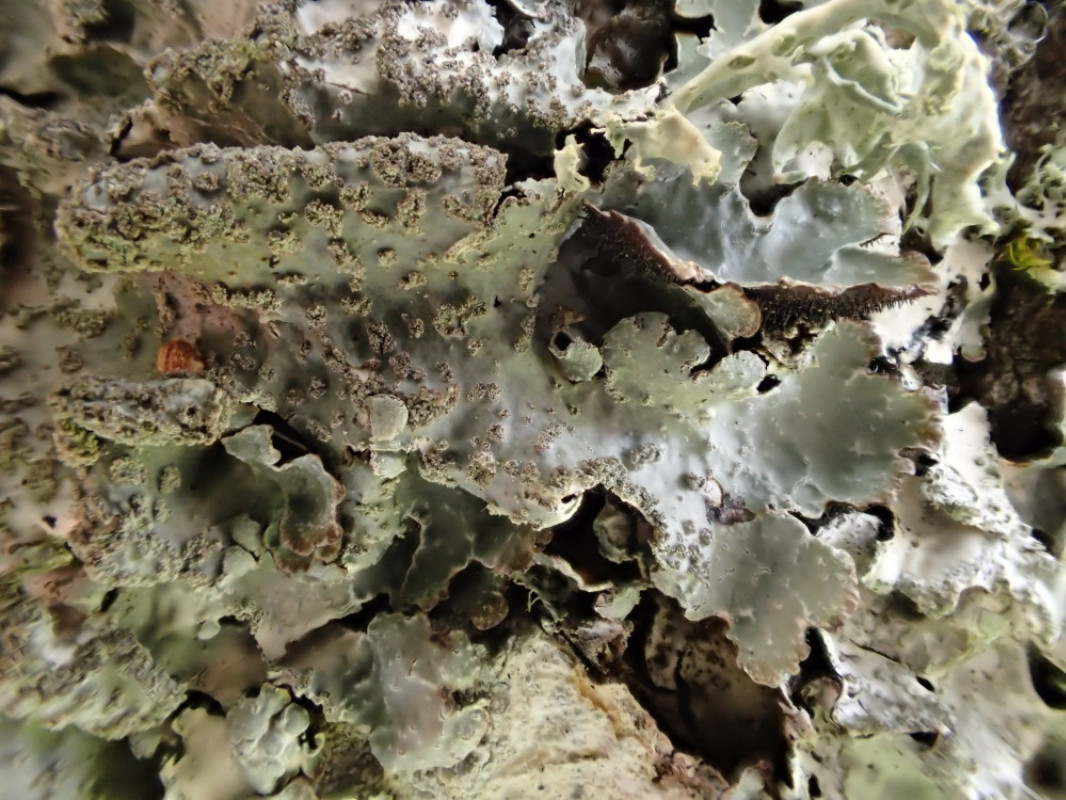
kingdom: Fungi
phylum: Ascomycota
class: Lecanoromycetes
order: Lecanorales
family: Parmeliaceae
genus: Parmelia
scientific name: Parmelia sulcata
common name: rynket skållav
